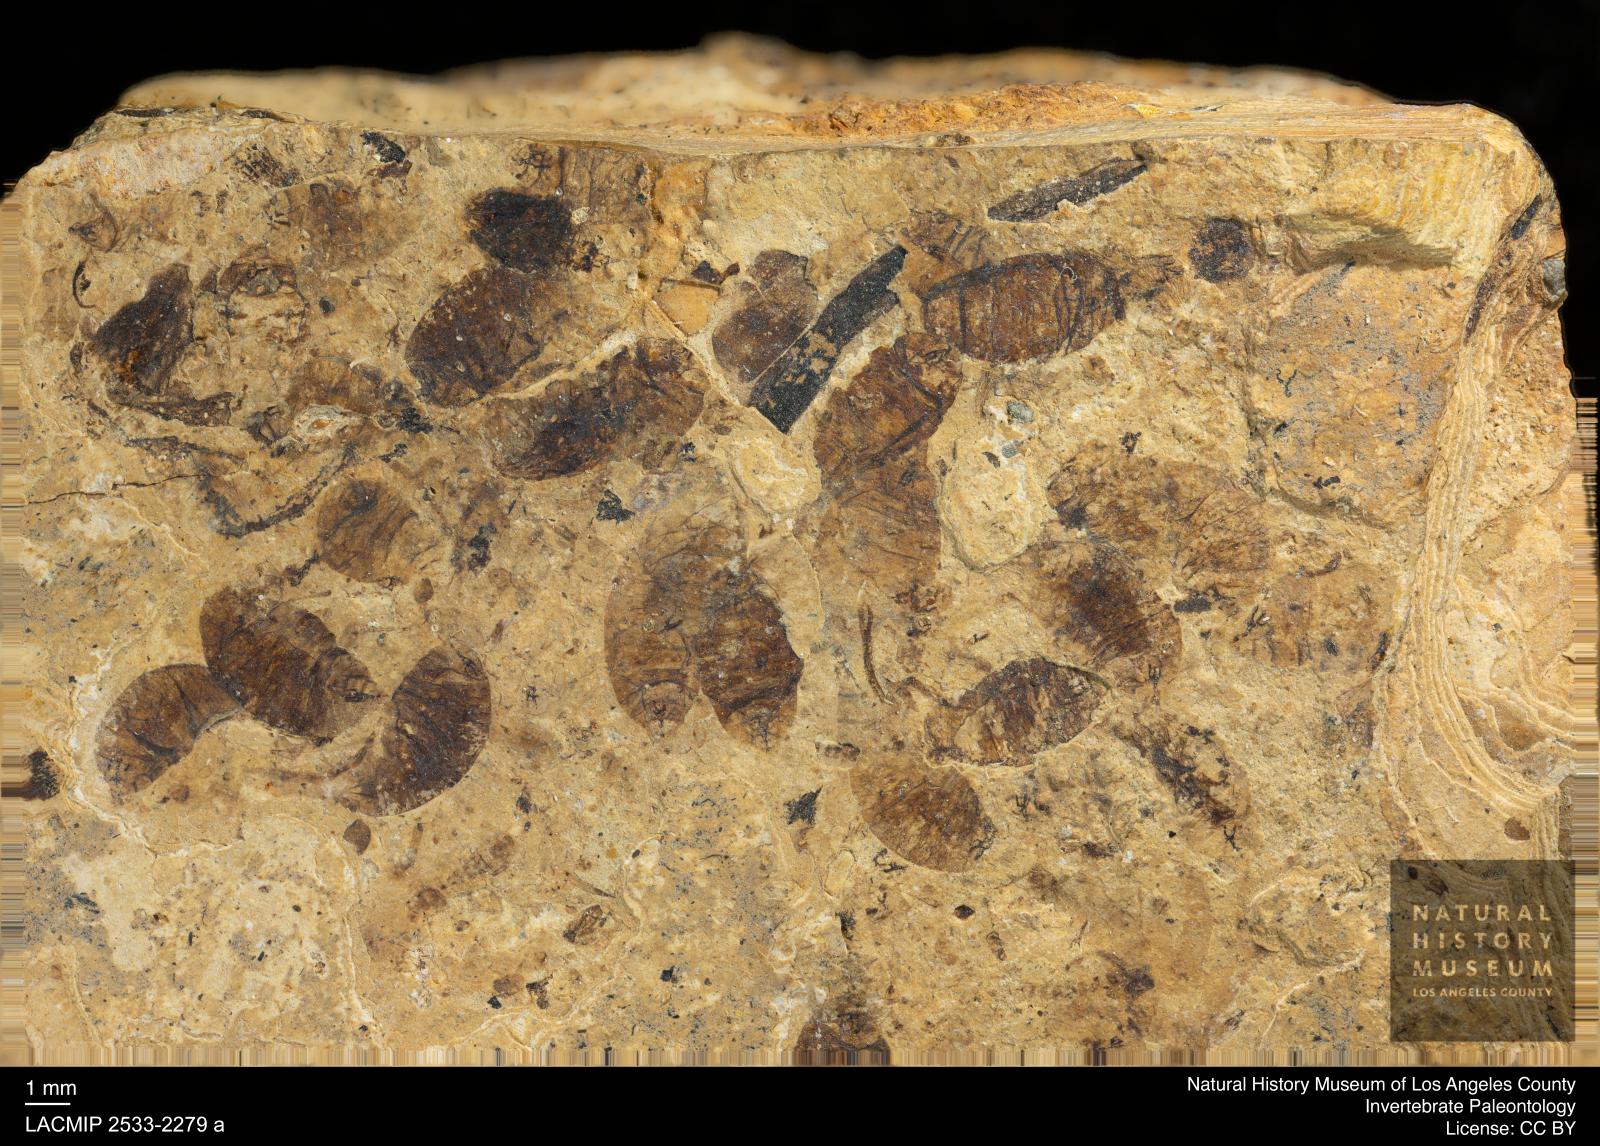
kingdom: Animalia
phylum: Arthropoda
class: Insecta
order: Diptera
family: Stratiomyidae
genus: Odontomyia
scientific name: Odontomyia
